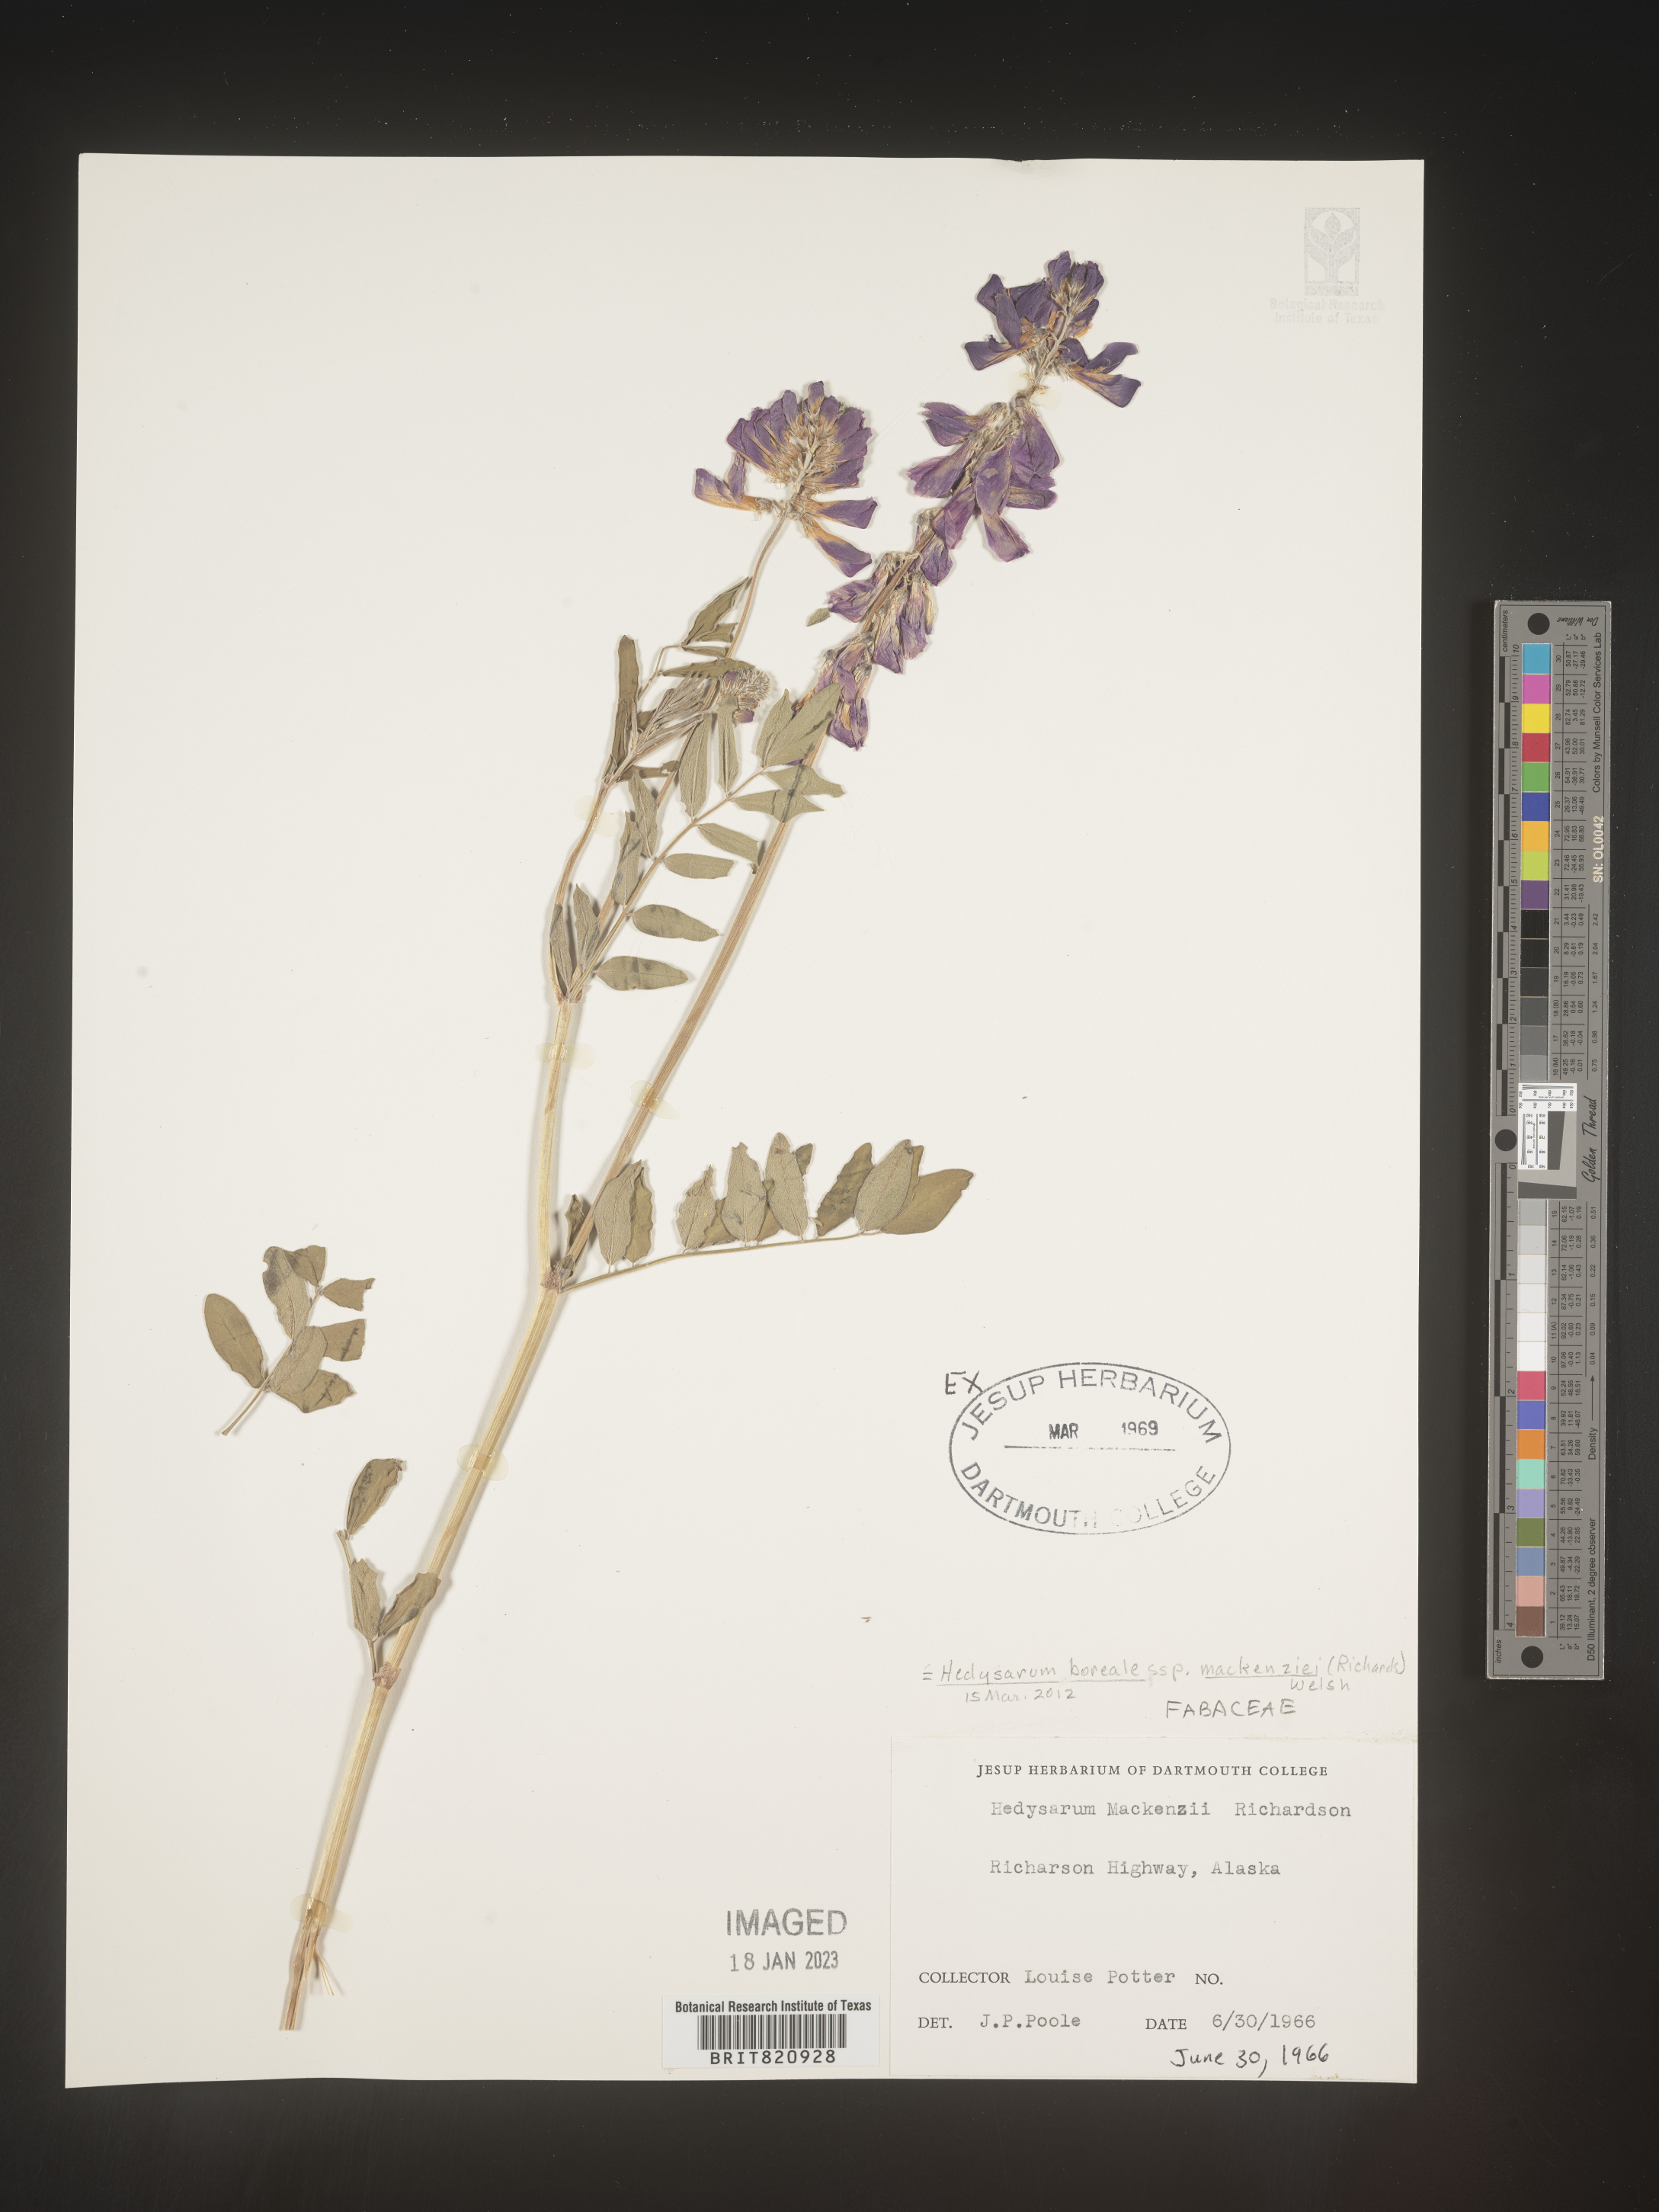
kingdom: Plantae
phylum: Tracheophyta
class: Magnoliopsida
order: Fabales
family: Fabaceae
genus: Hedysarum
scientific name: Hedysarum boreale
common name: Northern sweet-vetch
